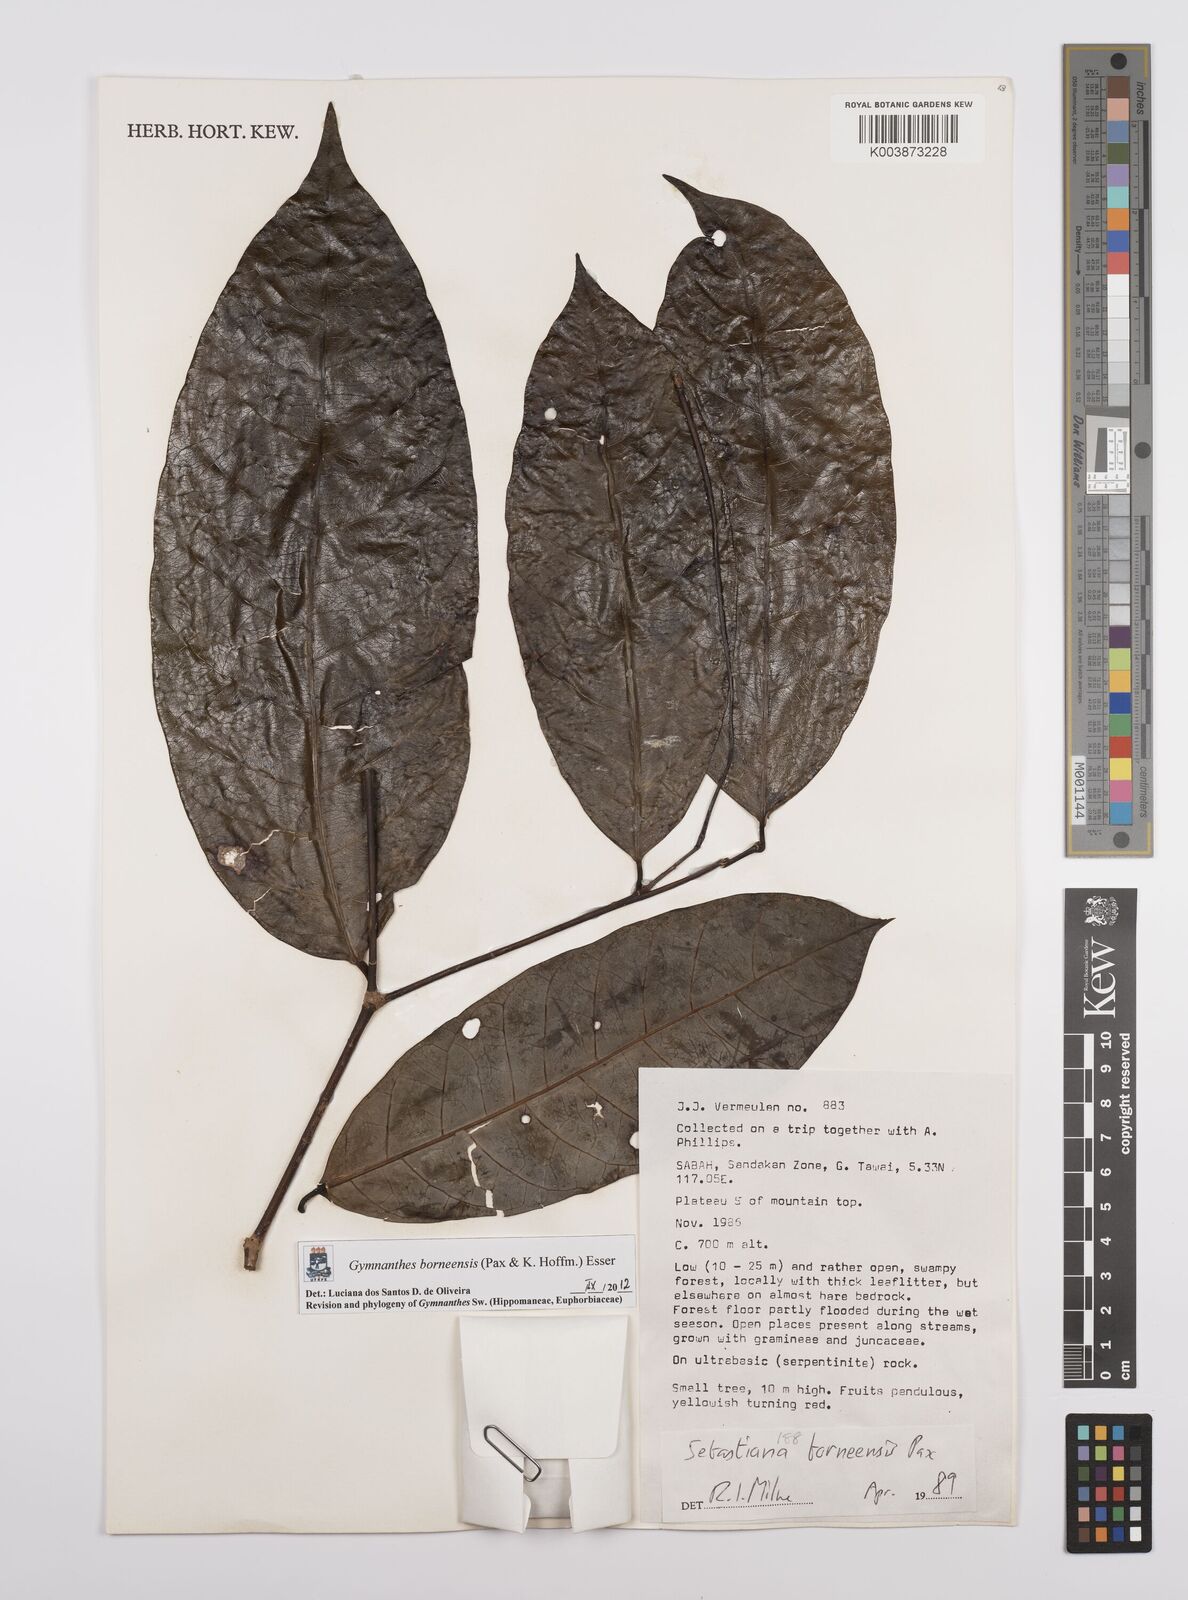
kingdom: Plantae
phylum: Tracheophyta
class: Magnoliopsida
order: Malpighiales
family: Euphorbiaceae
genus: Gymnanthes
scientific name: Gymnanthes borneensis
